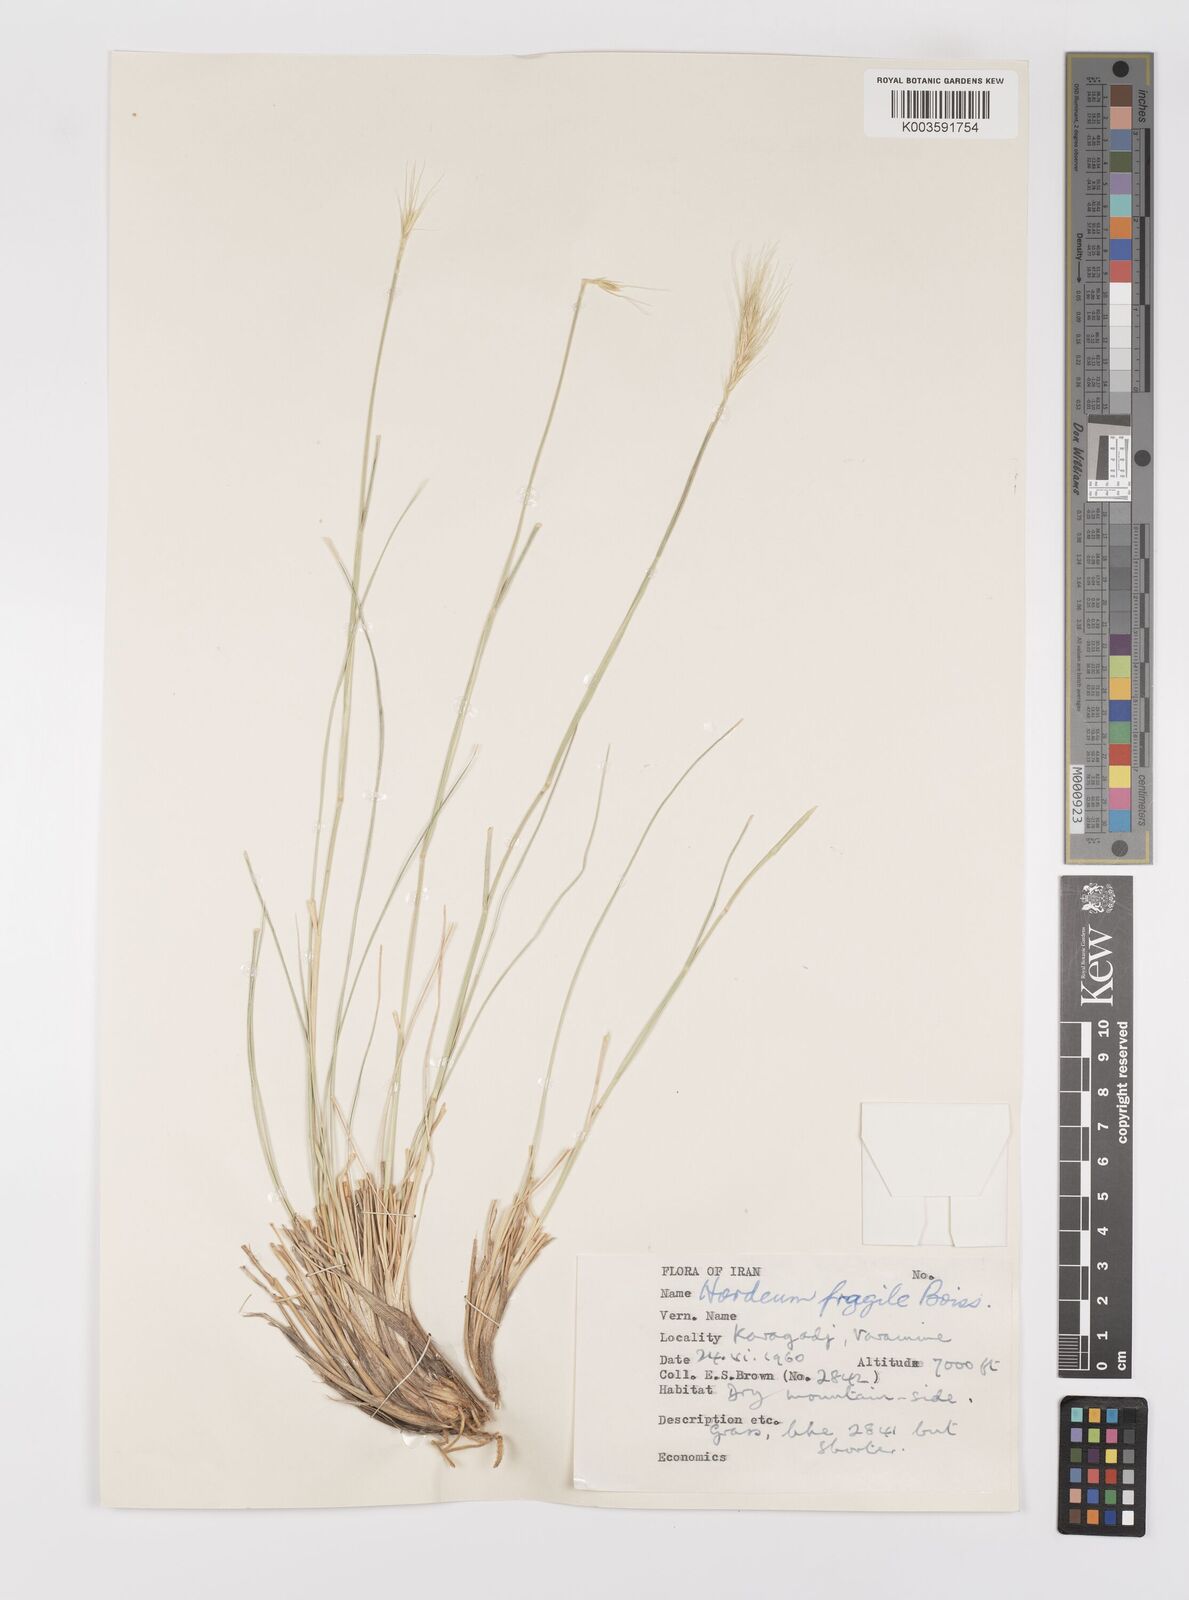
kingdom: Plantae
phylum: Tracheophyta
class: Liliopsida
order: Poales
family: Poaceae
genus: Psathyrostachys
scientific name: Psathyrostachys fragilis
